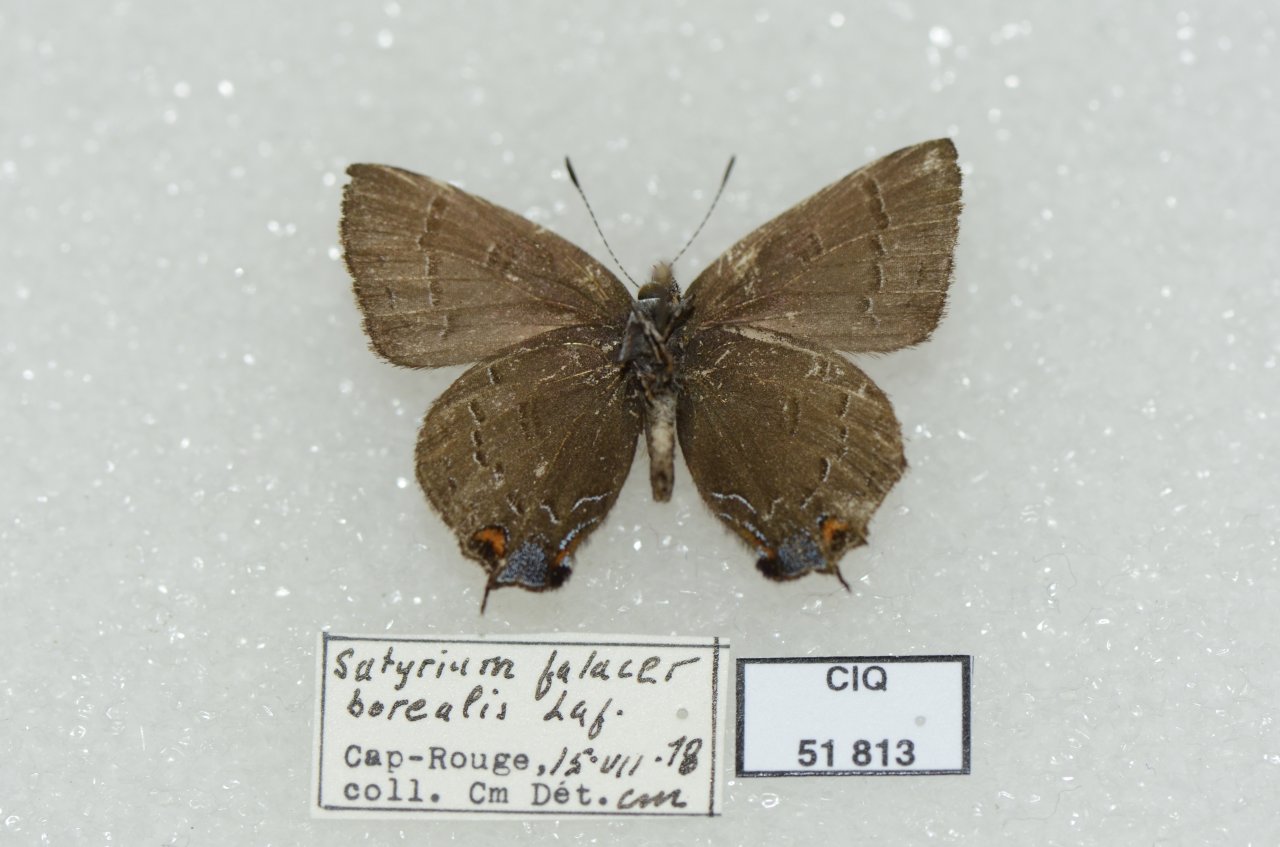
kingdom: Animalia
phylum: Arthropoda
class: Insecta
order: Lepidoptera
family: Lycaenidae
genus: Satyrium
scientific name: Satyrium calanus
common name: Banded Hairstreak
